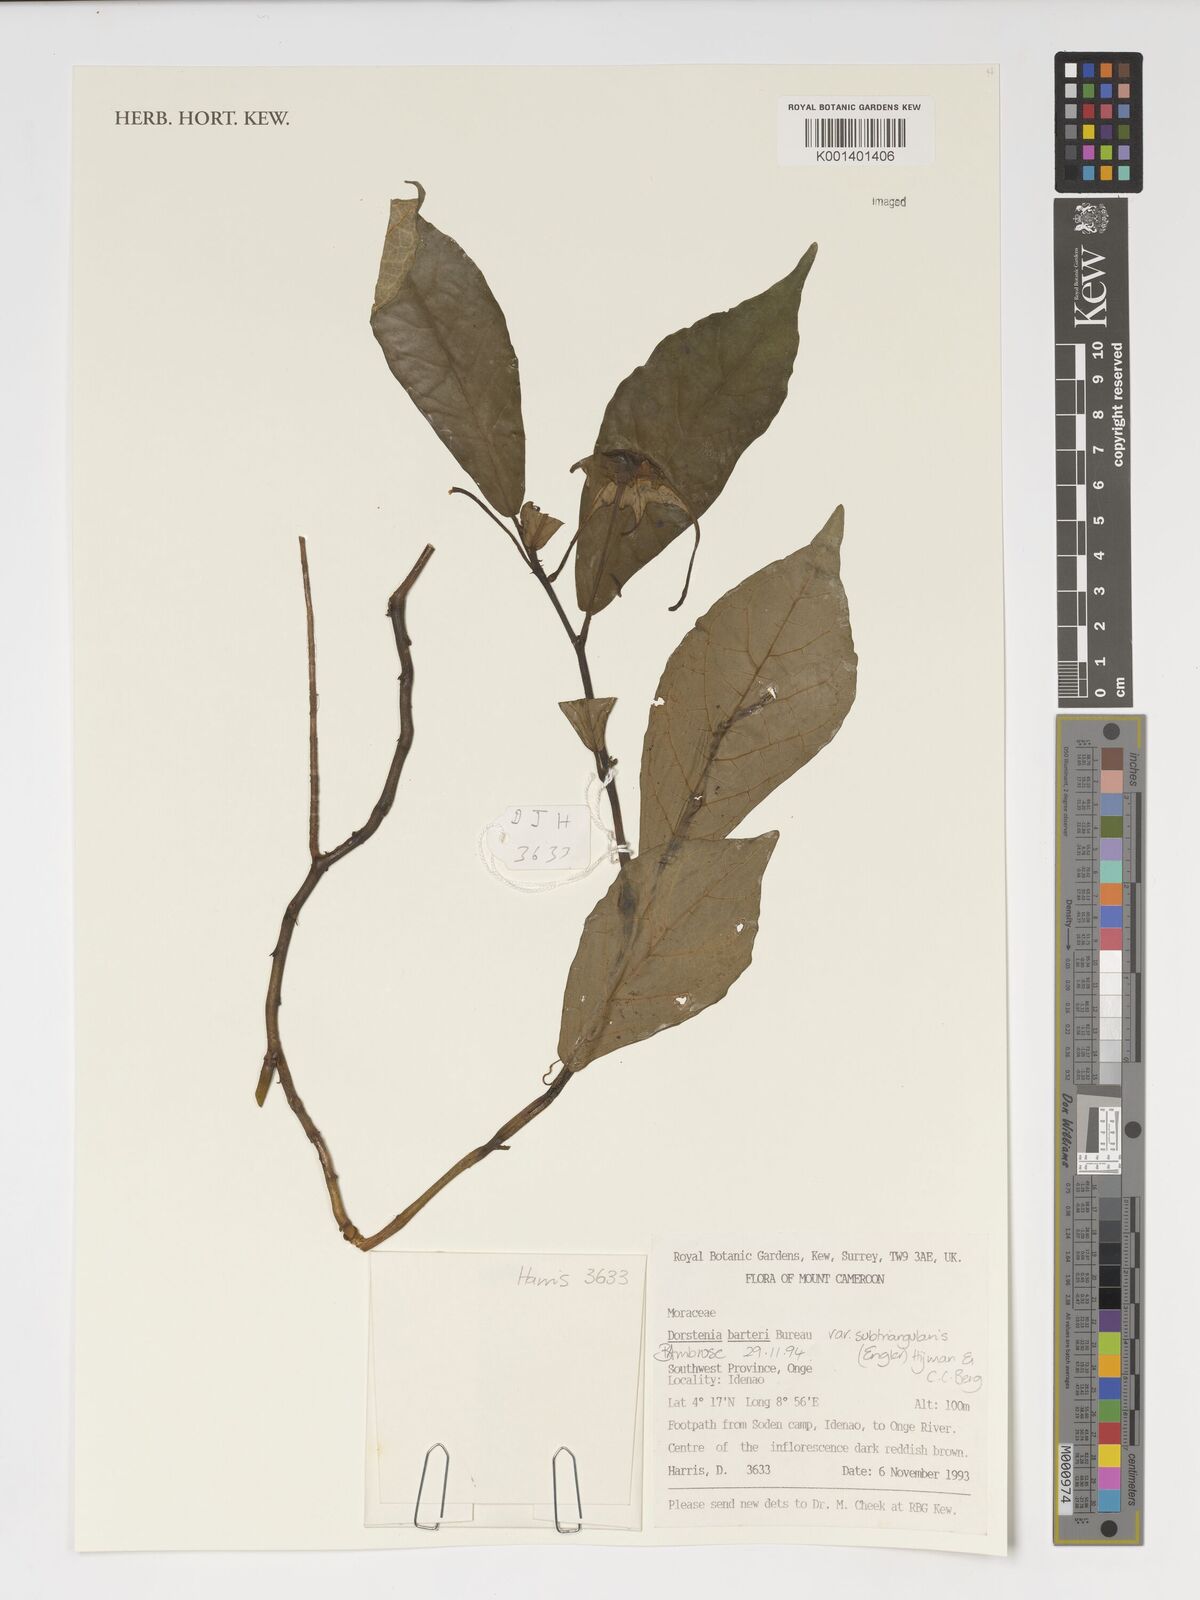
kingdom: Plantae
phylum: Tracheophyta
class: Magnoliopsida
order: Rosales
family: Moraceae
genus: Dorstenia
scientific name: Dorstenia barteri
